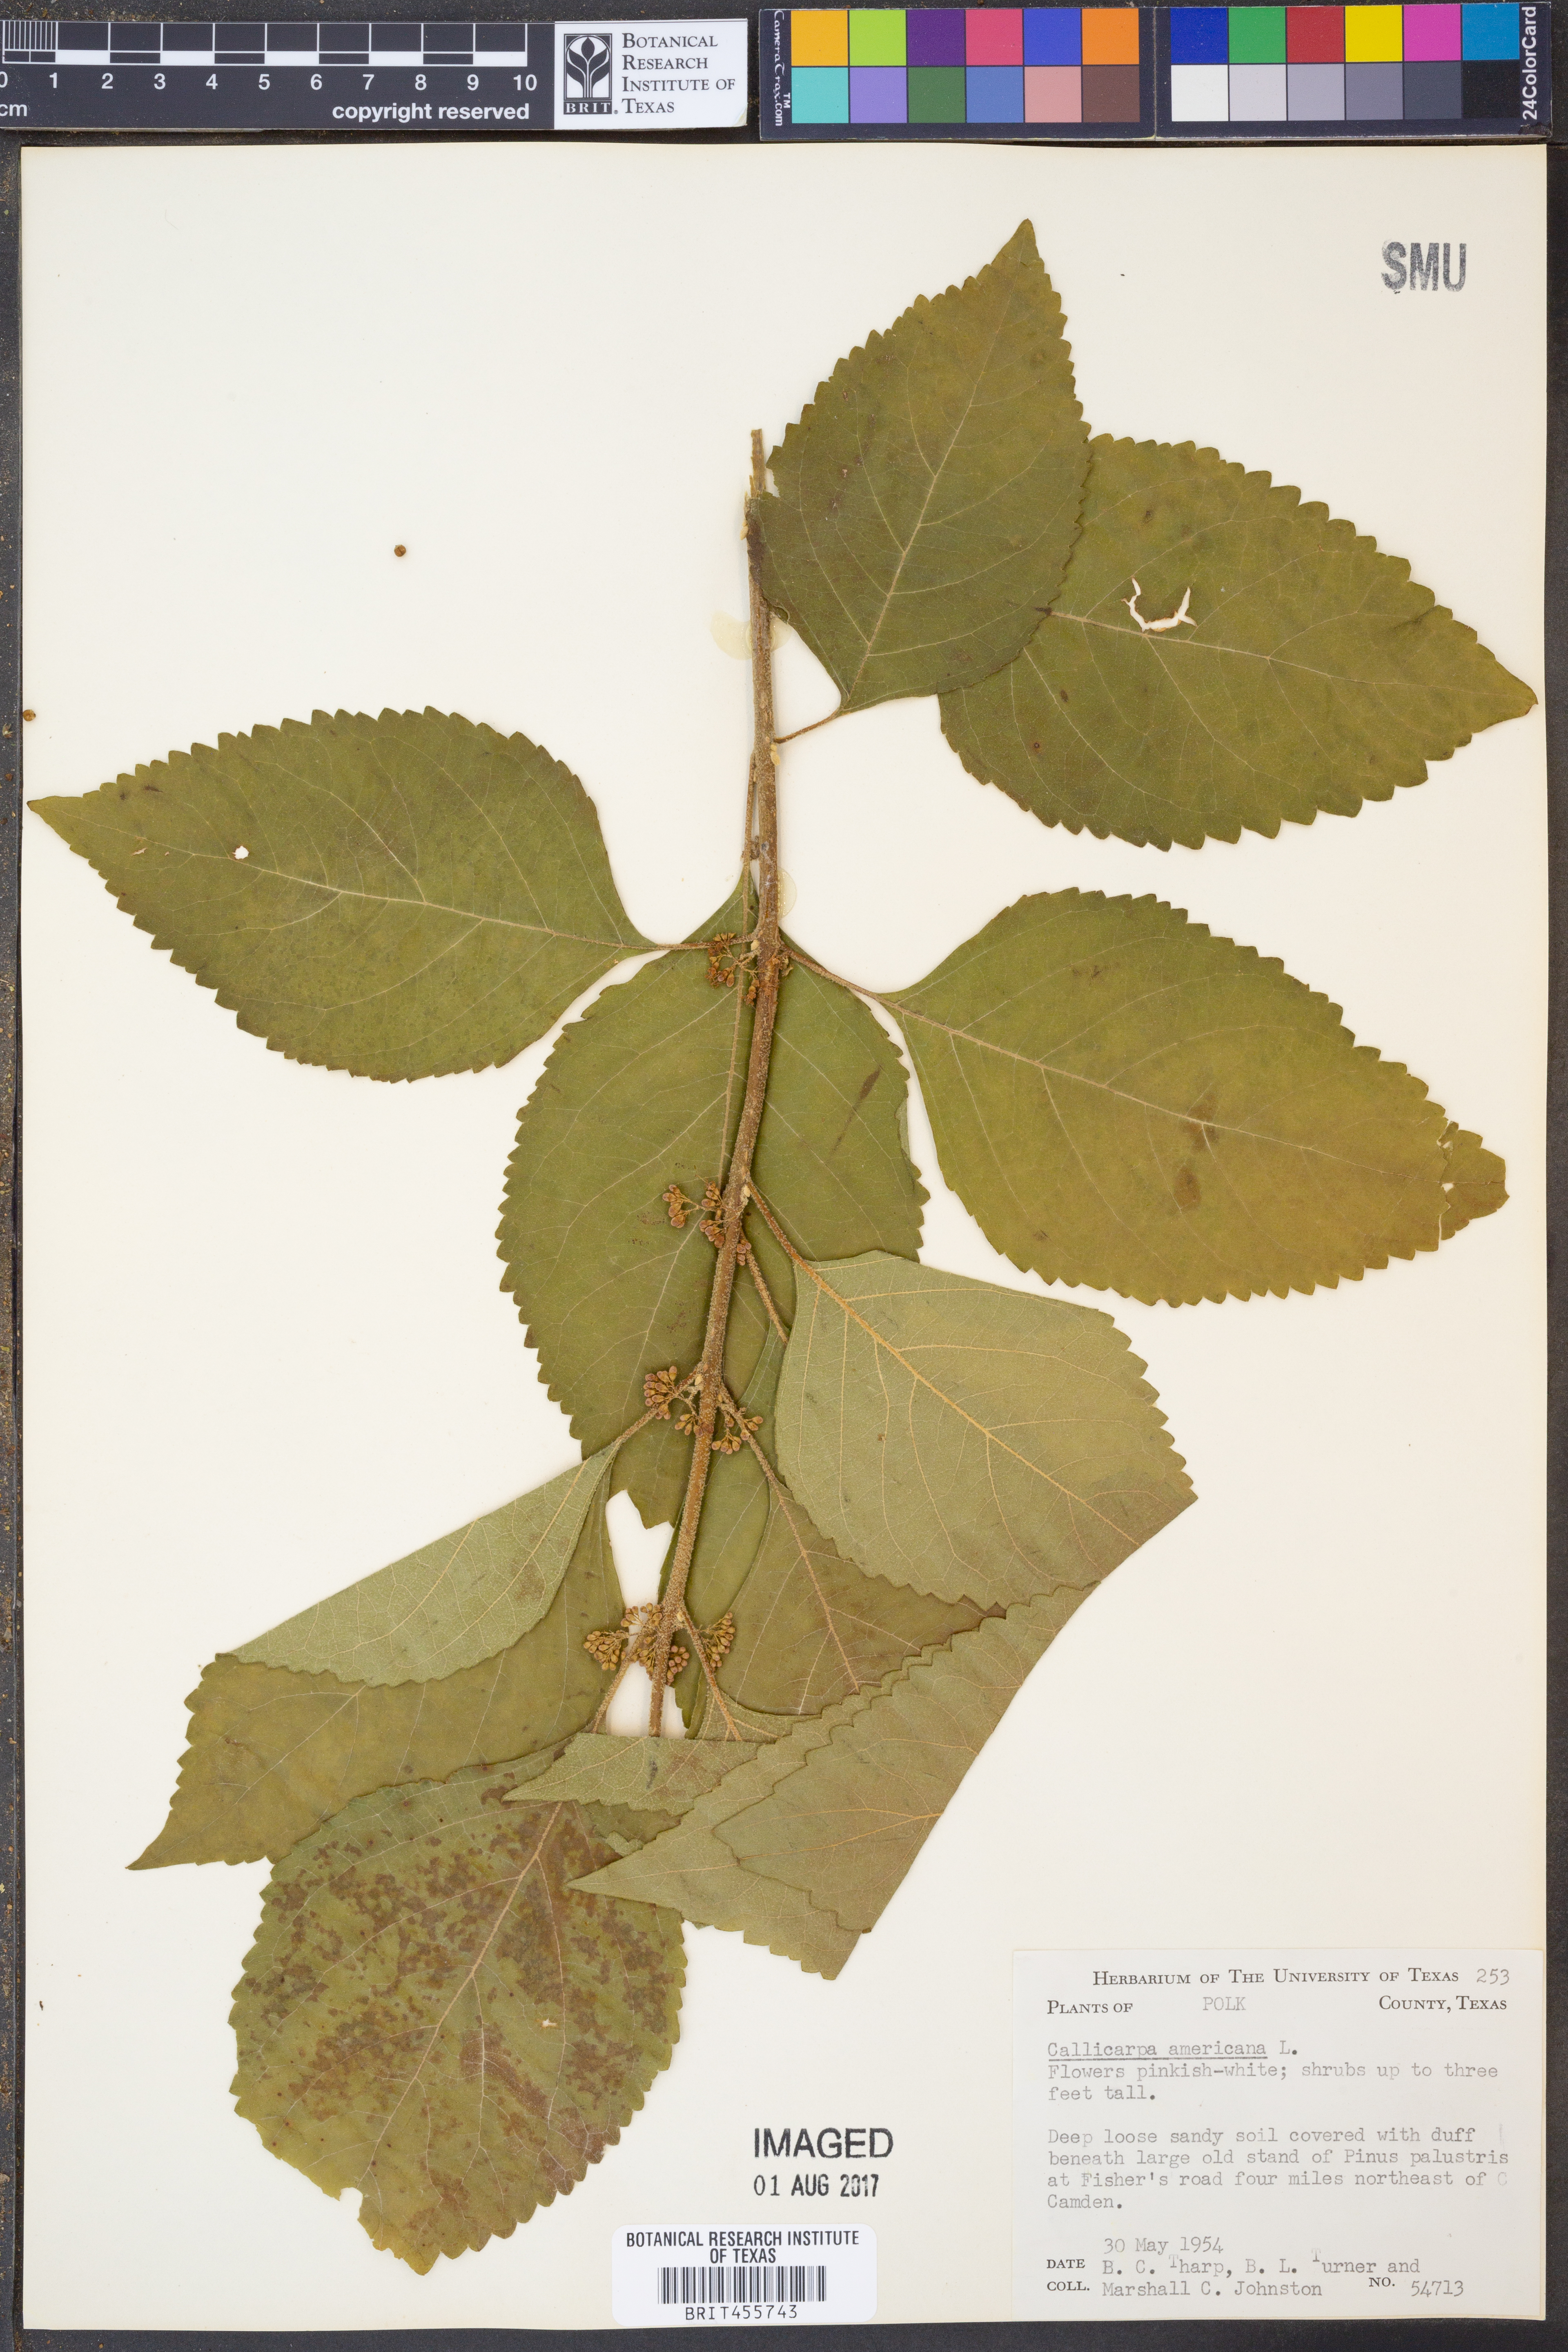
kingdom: Plantae
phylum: Tracheophyta
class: Magnoliopsida
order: Lamiales
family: Lamiaceae
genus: Callicarpa
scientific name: Callicarpa americana
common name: American beautyberry
